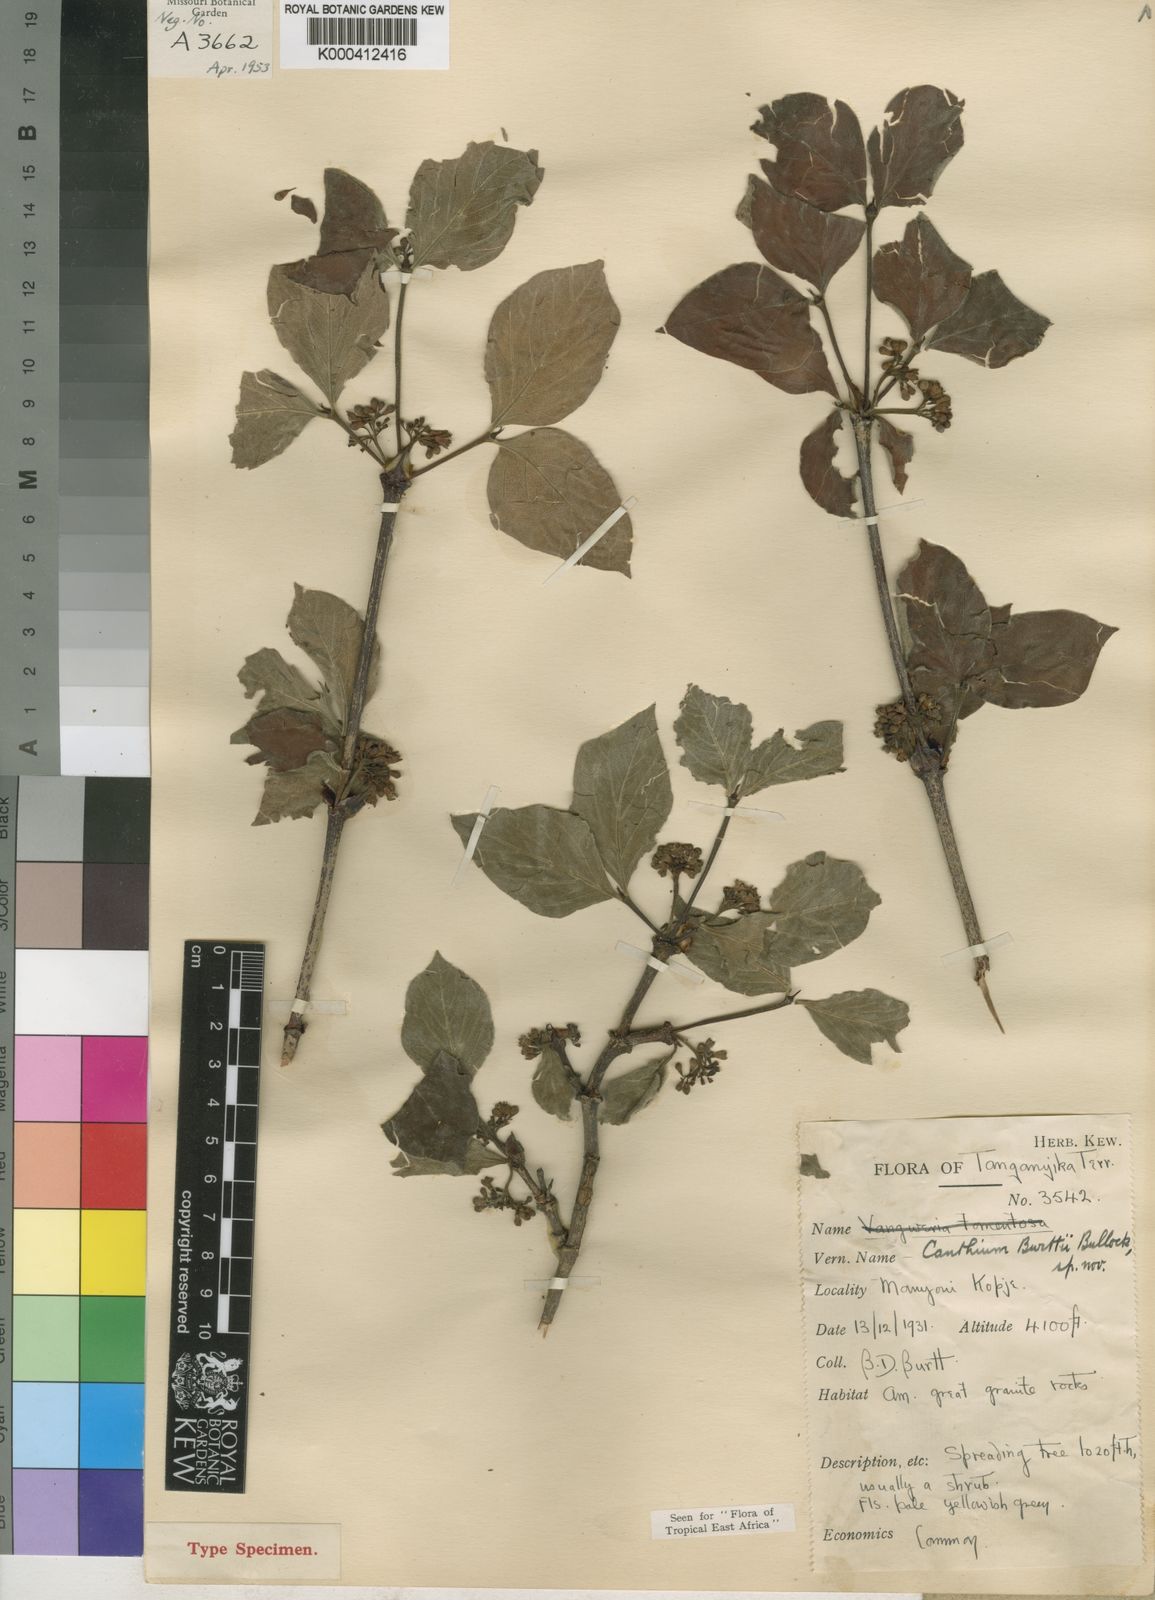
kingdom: Plantae
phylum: Tracheophyta
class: Magnoliopsida
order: Gentianales
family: Rubiaceae
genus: Afrocanthium
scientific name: Afrocanthium burttii
